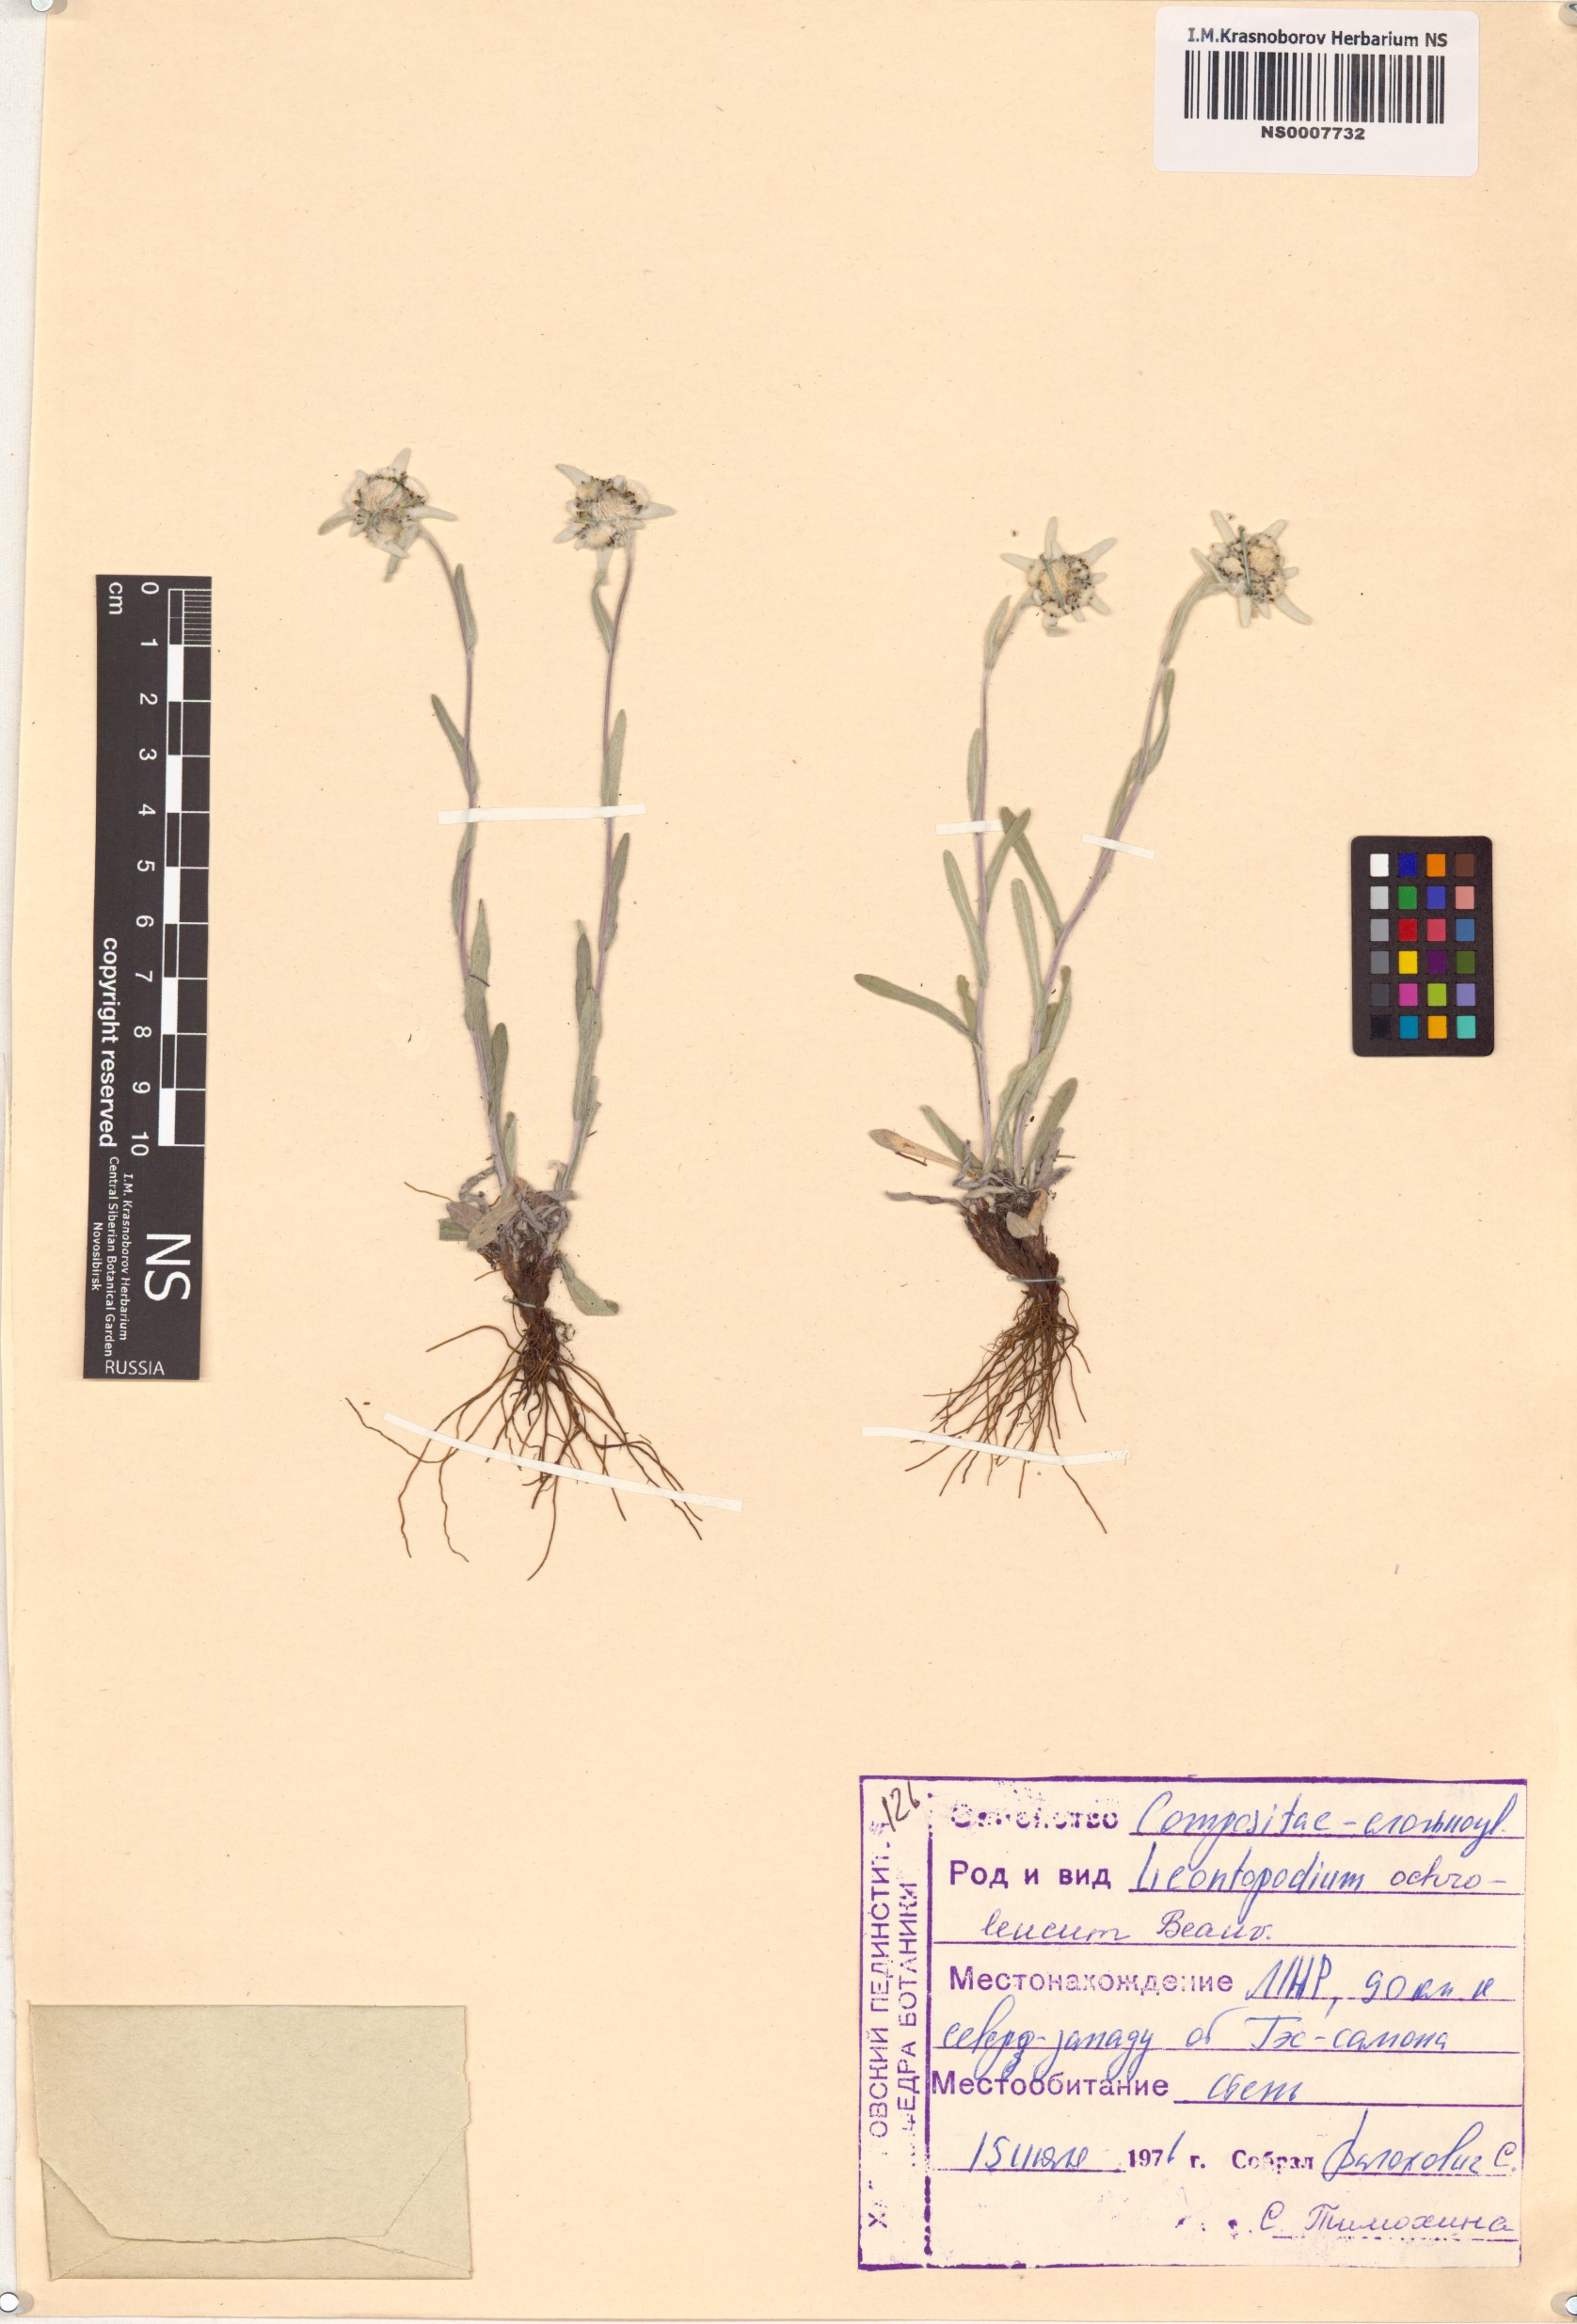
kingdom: Plantae
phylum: Tracheophyta
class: Magnoliopsida
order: Asterales
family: Asteraceae
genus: Leontopodium
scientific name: Leontopodium leontopodinum
